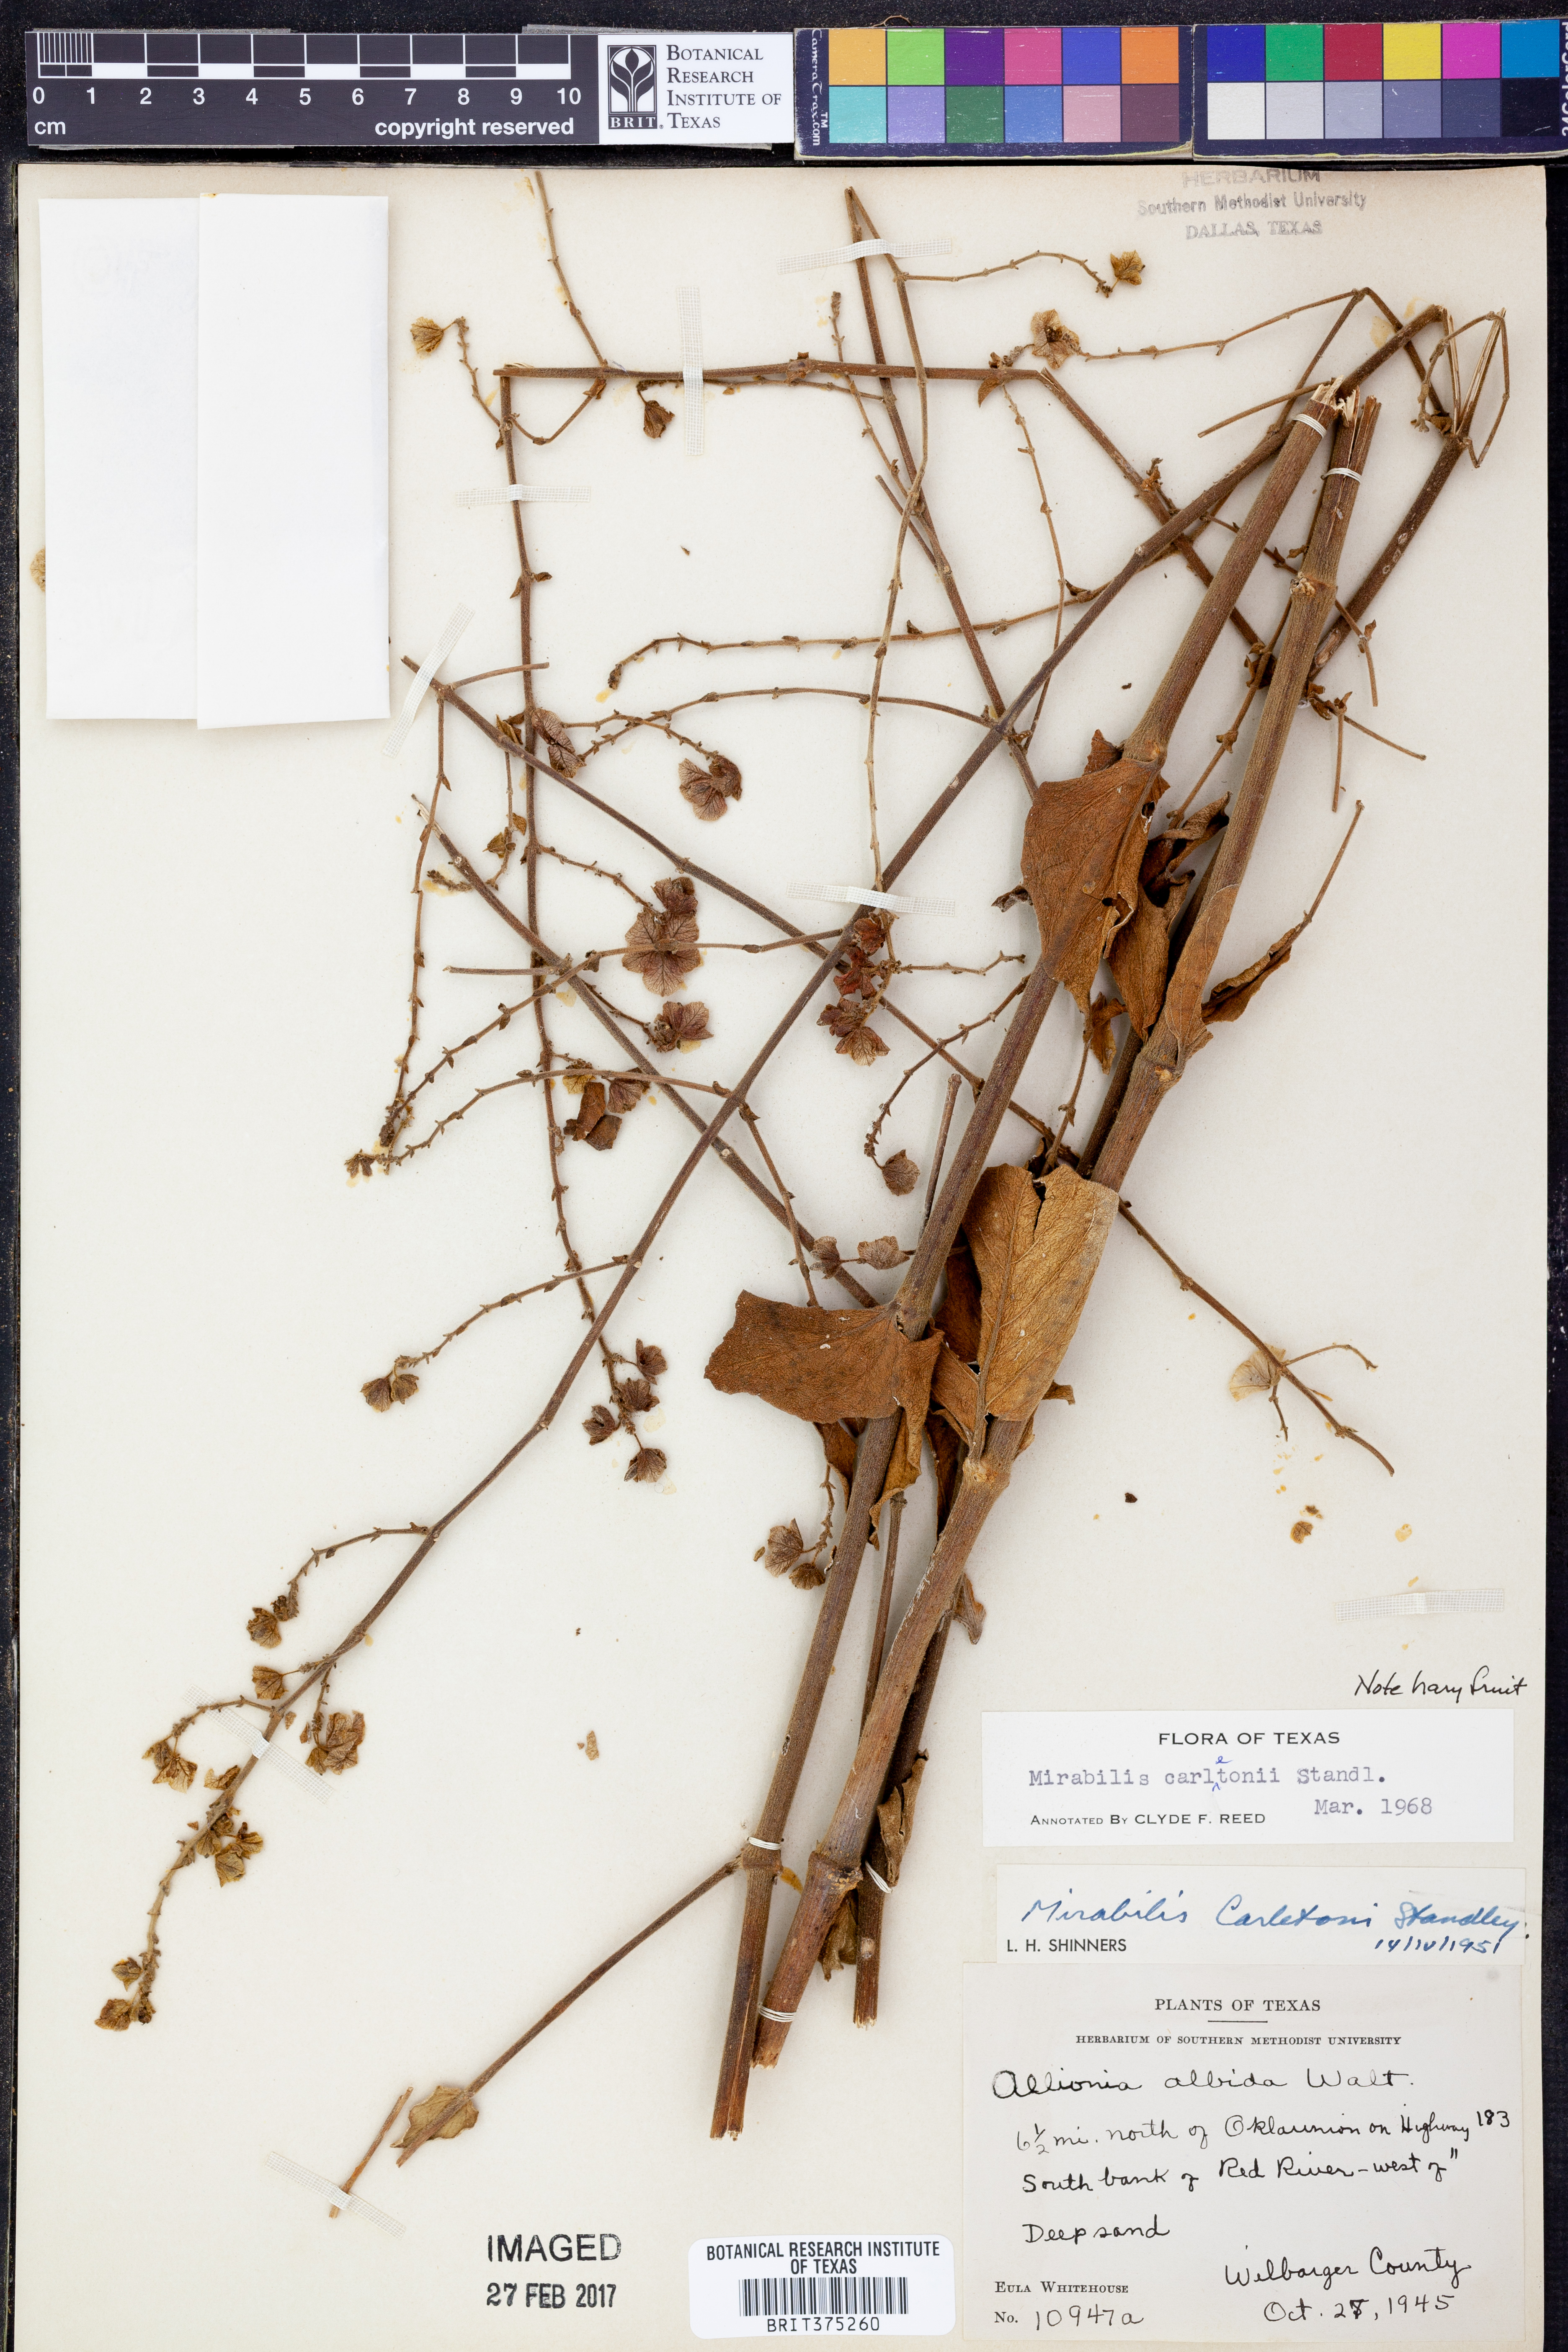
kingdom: Plantae
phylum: Tracheophyta
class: Magnoliopsida
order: Caryophyllales
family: Nyctaginaceae
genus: Mirabilis
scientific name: Mirabilis glabra
